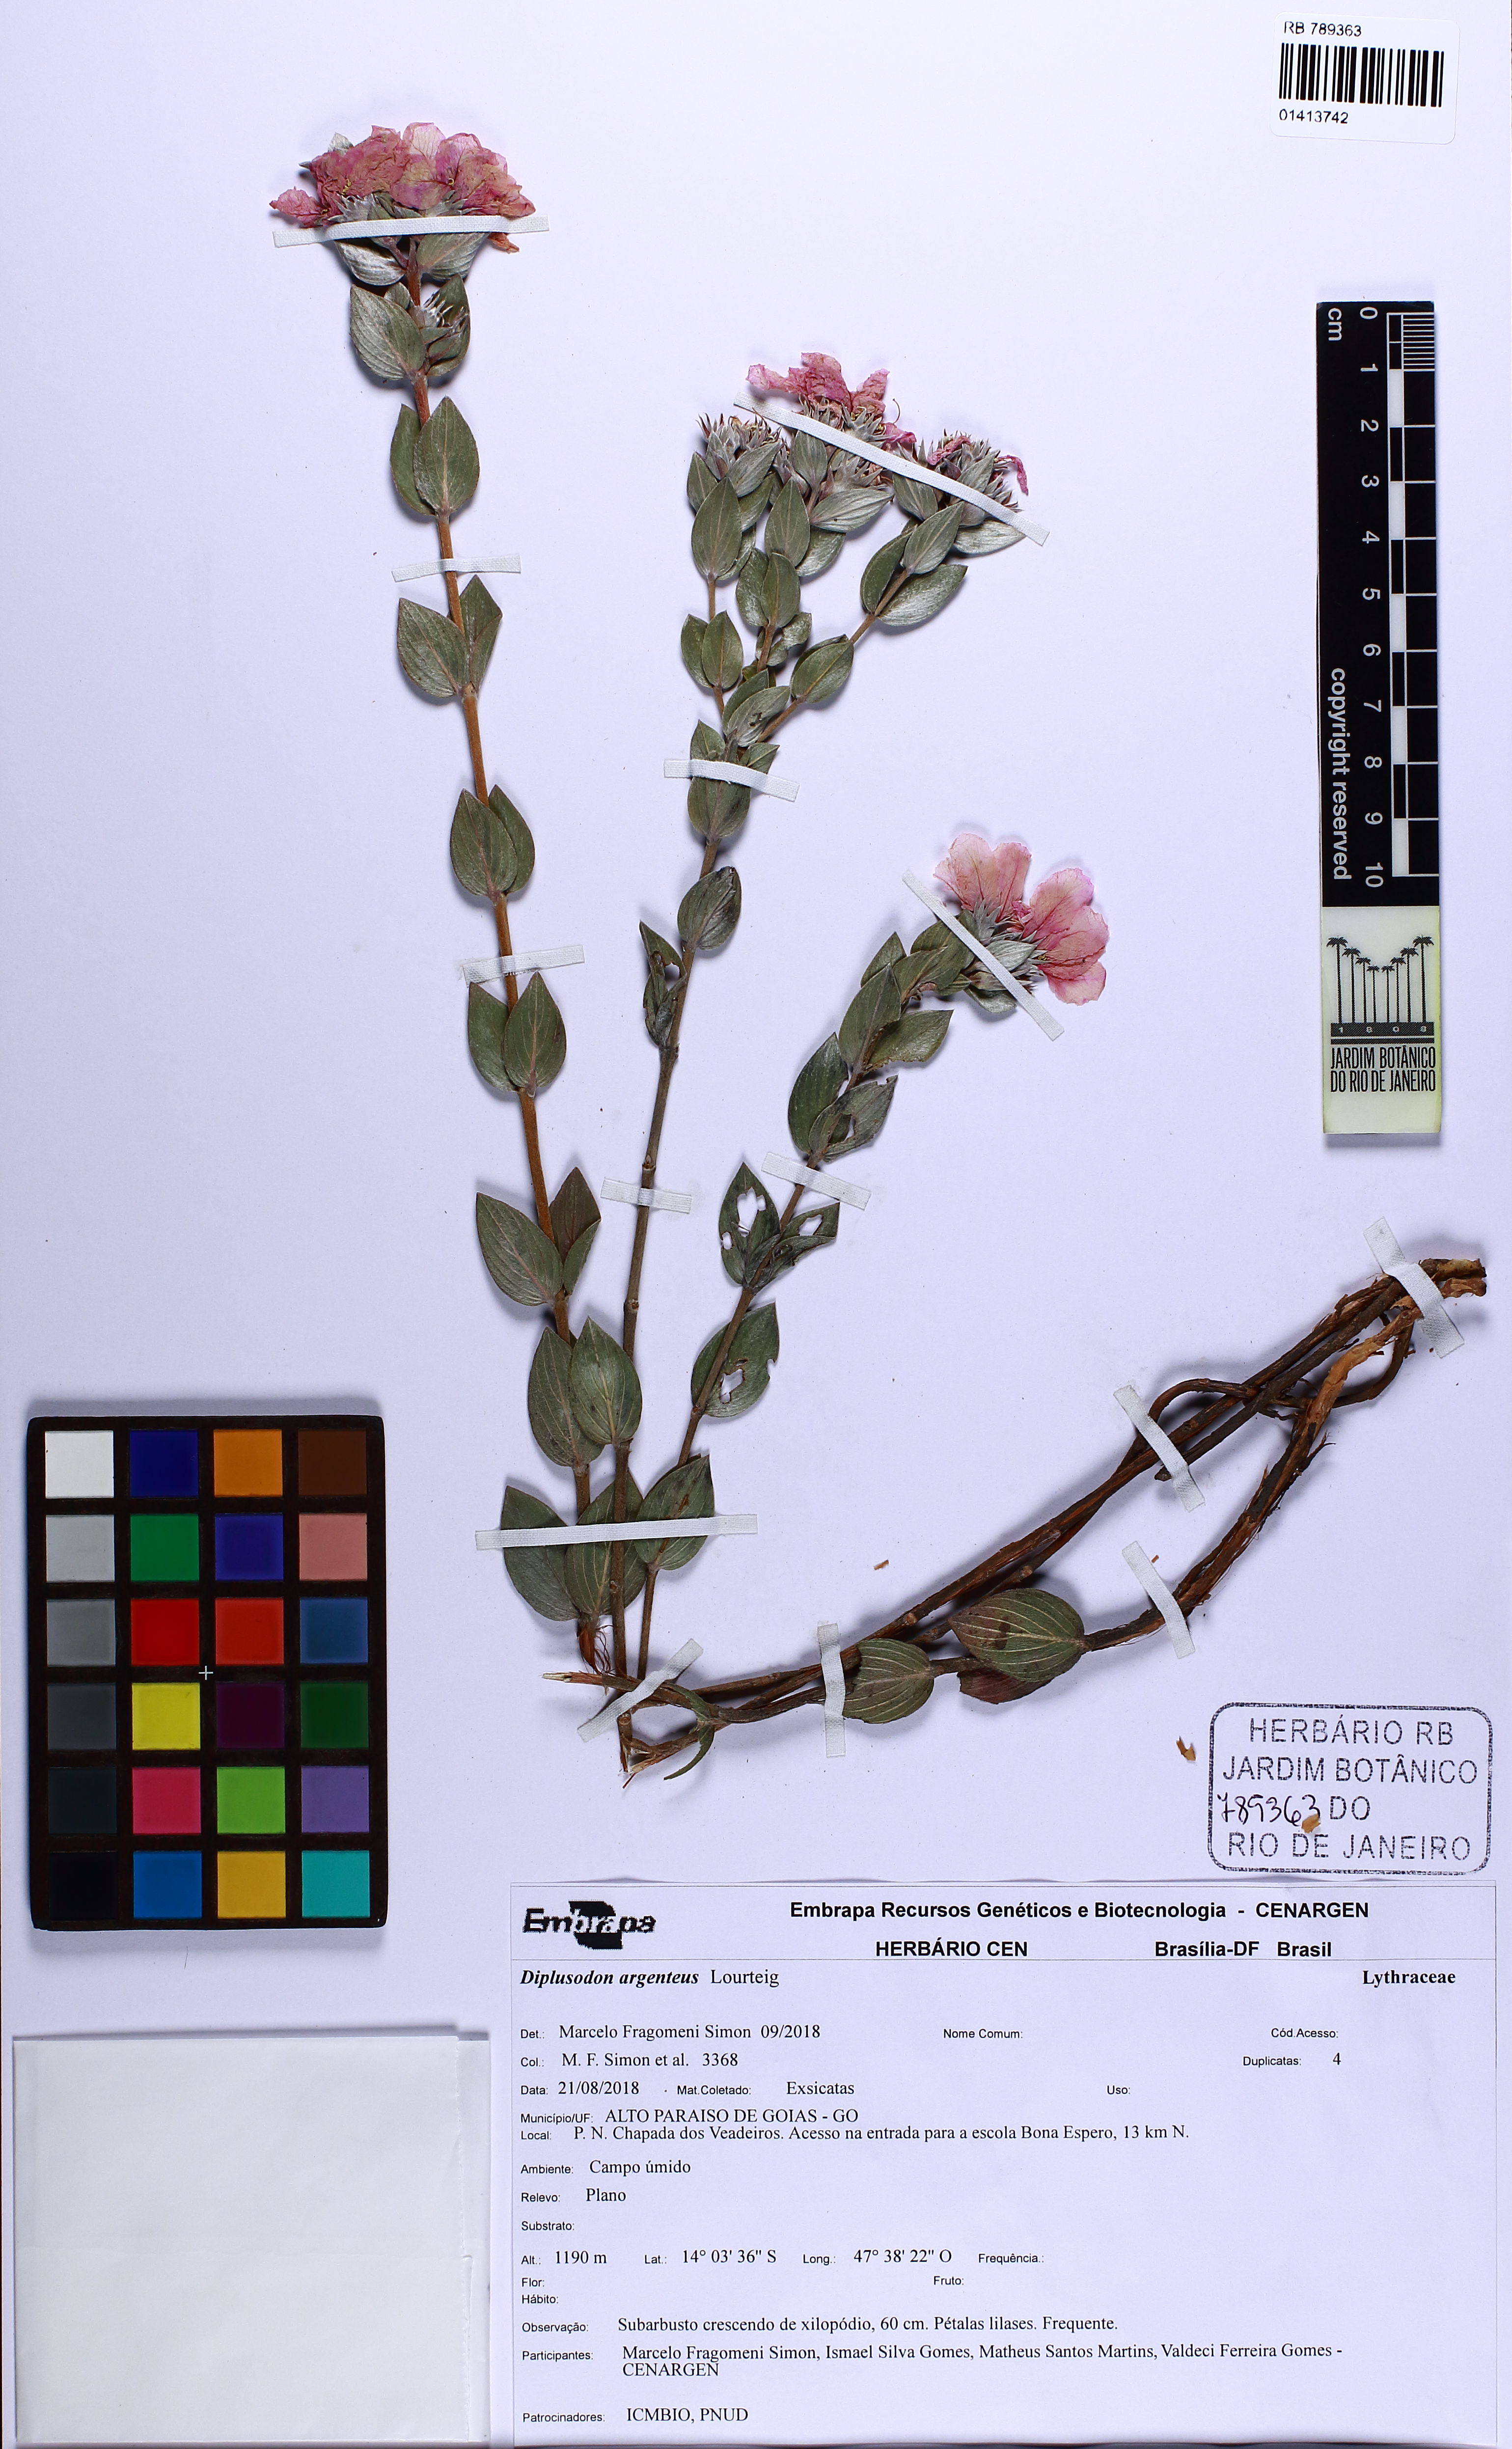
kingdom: Plantae
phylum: Tracheophyta
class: Magnoliopsida
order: Myrtales
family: Lythraceae
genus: Diplusodon
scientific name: Diplusodon argenteus
